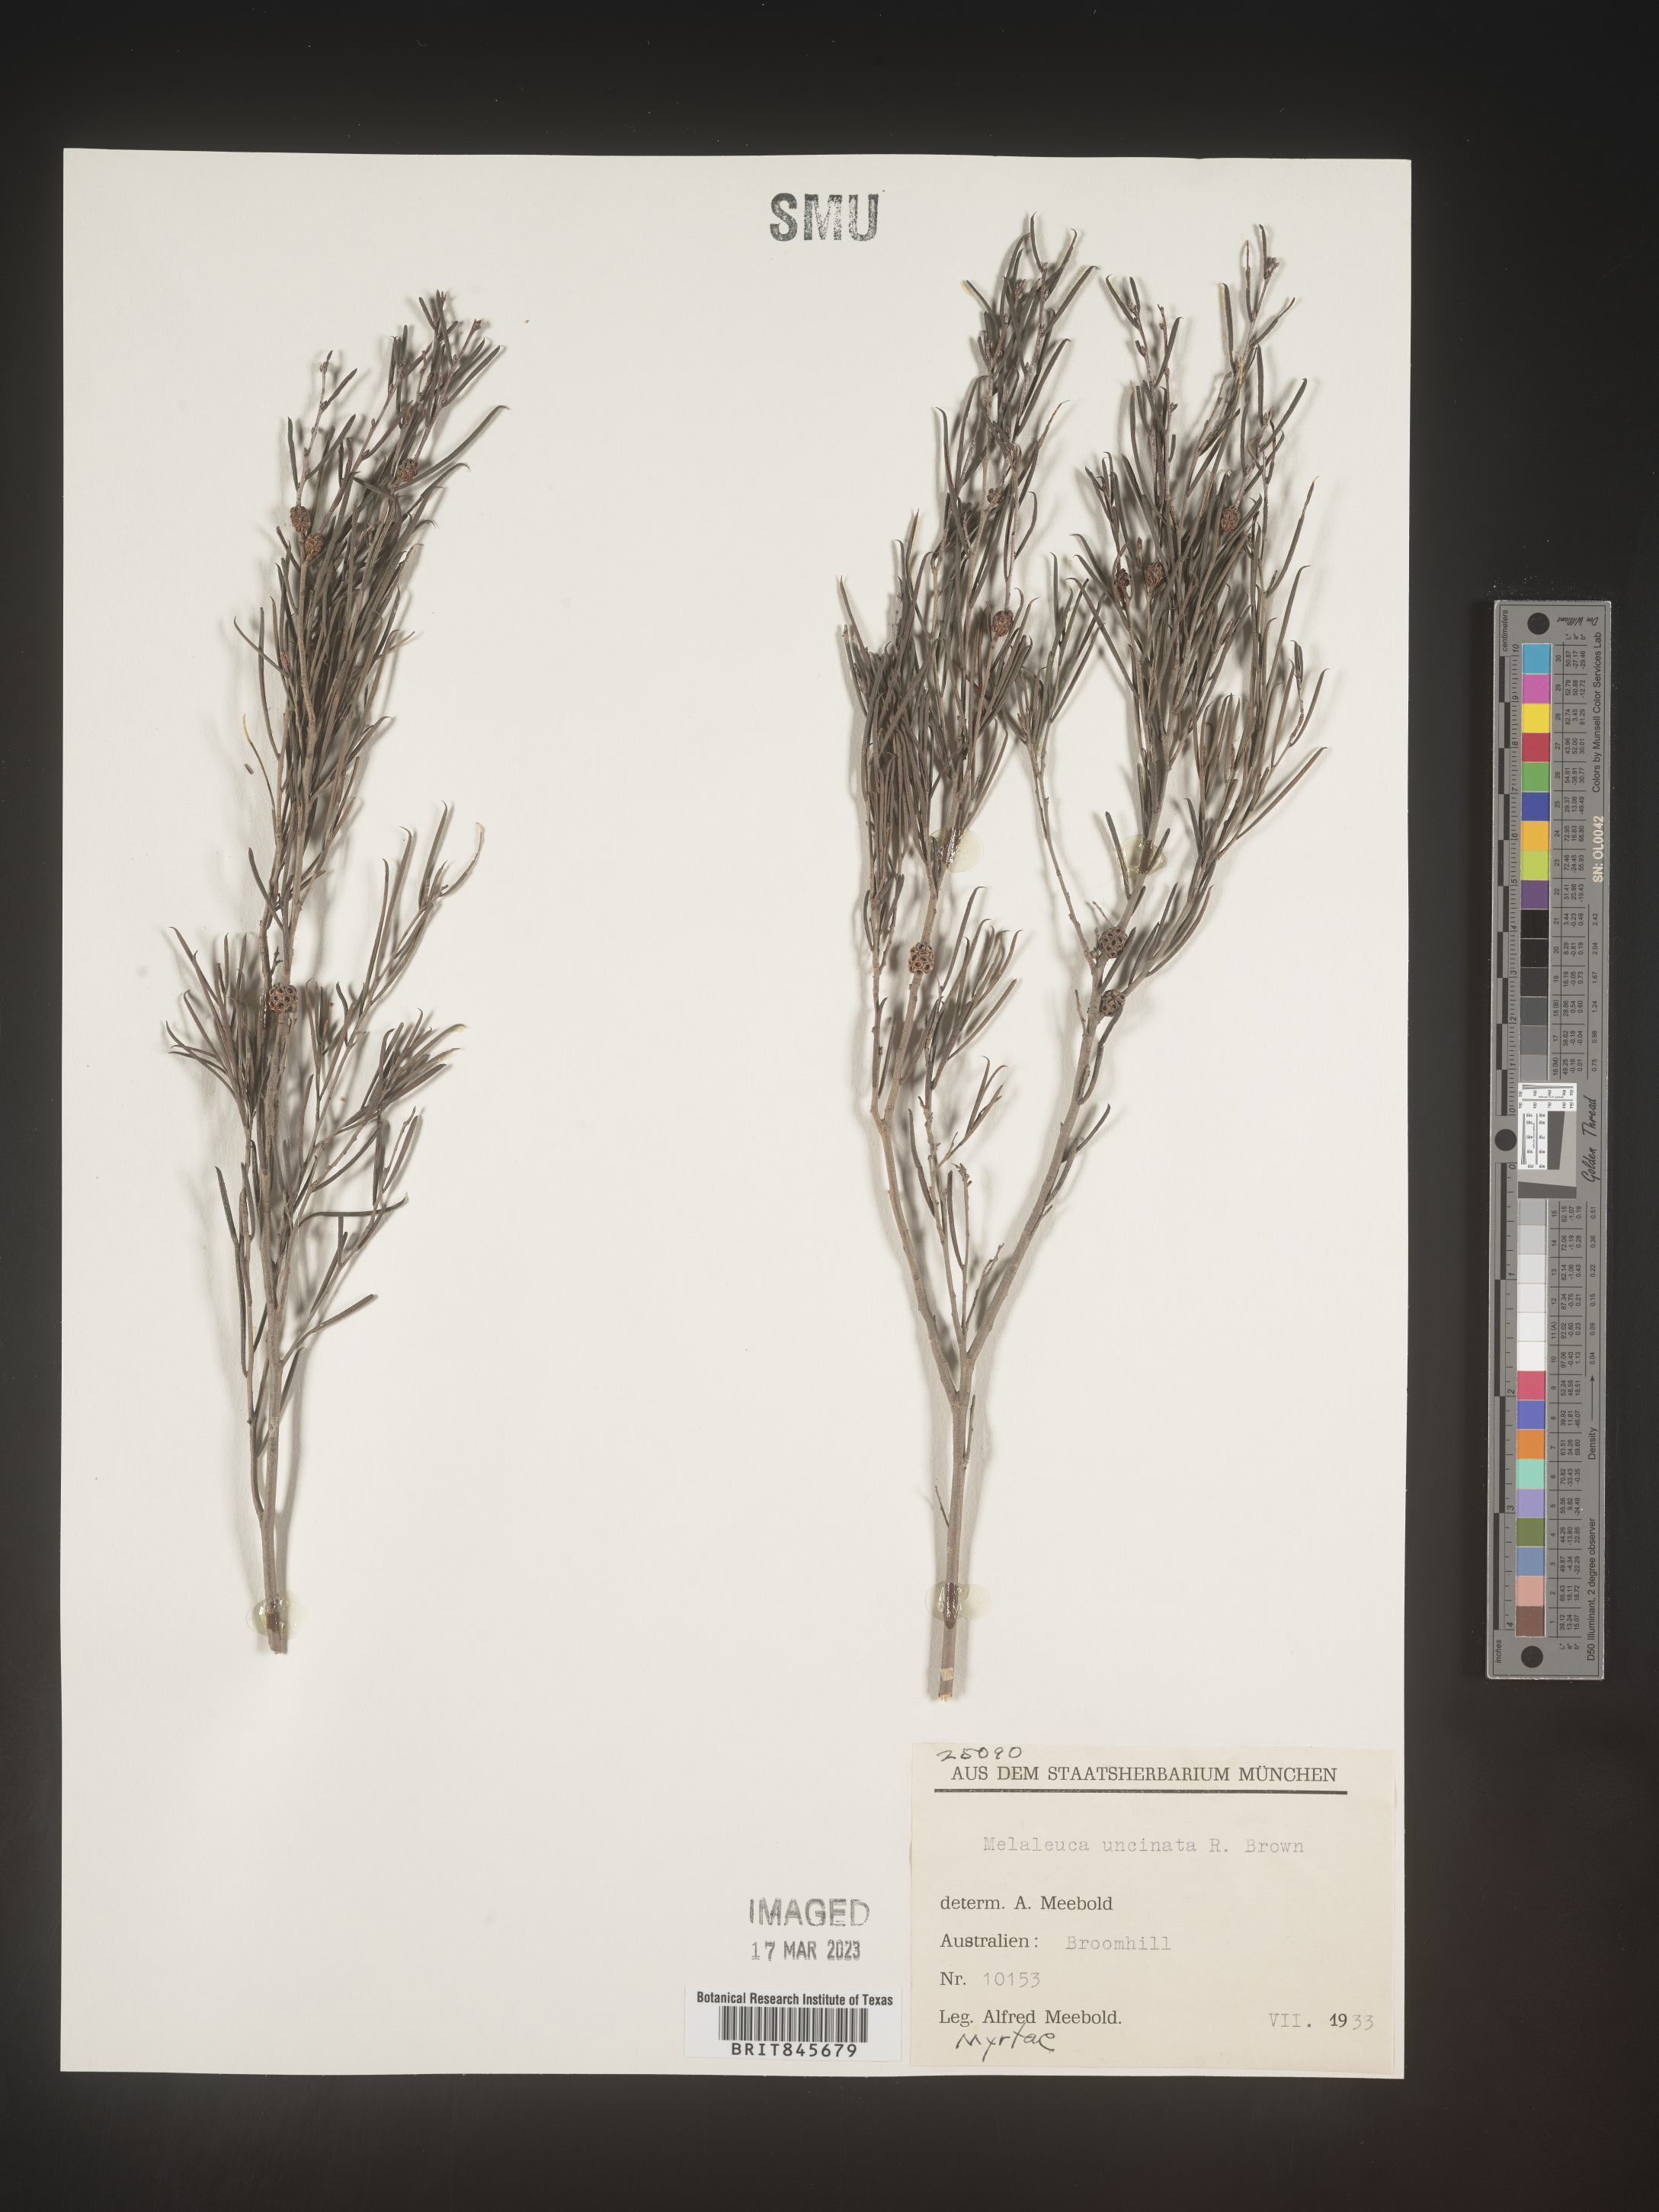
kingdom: Plantae
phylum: Tracheophyta
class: Magnoliopsida
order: Myrtales
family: Myrtaceae
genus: Melaleuca
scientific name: Melaleuca
